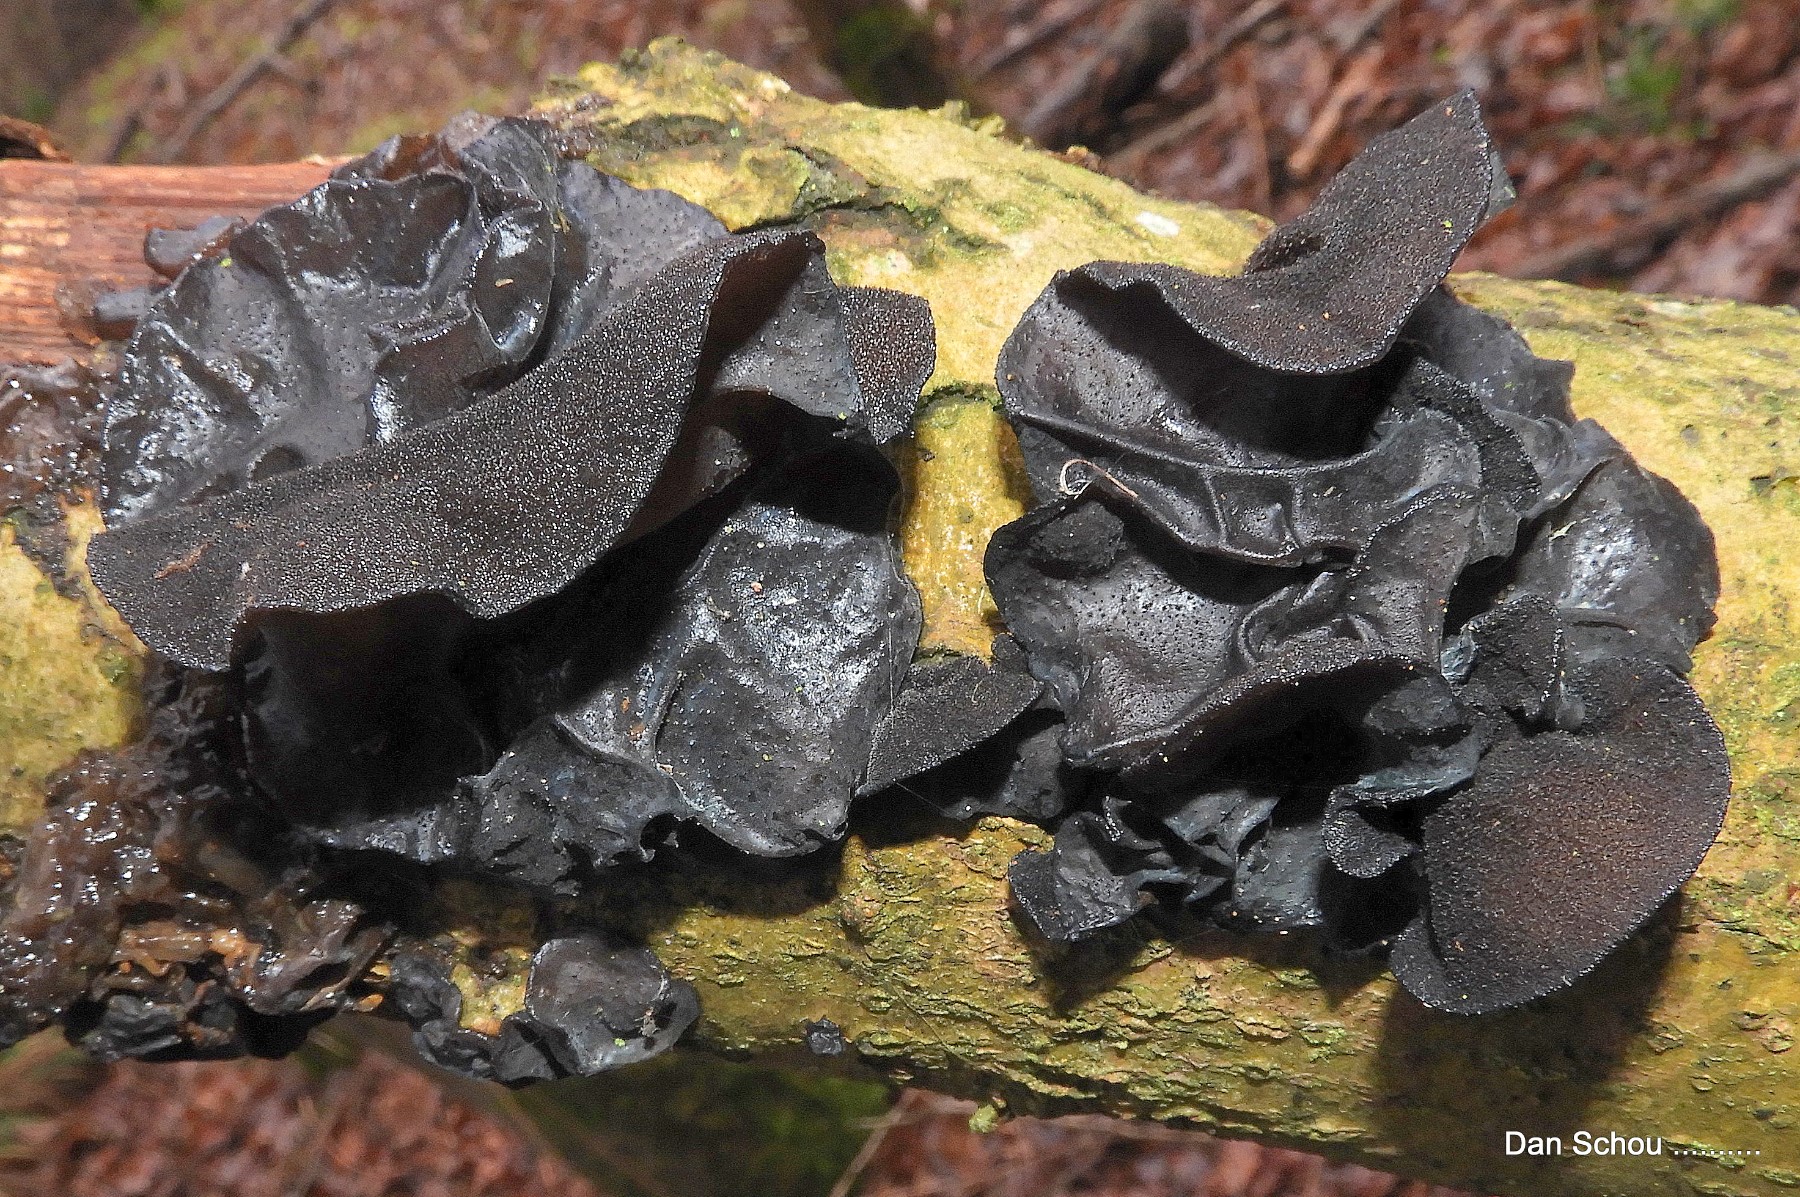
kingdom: Fungi
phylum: Basidiomycota
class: Agaricomycetes
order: Auriculariales
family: Auriculariaceae
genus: Exidia
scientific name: Exidia glandulosa
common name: ege-bævretop
